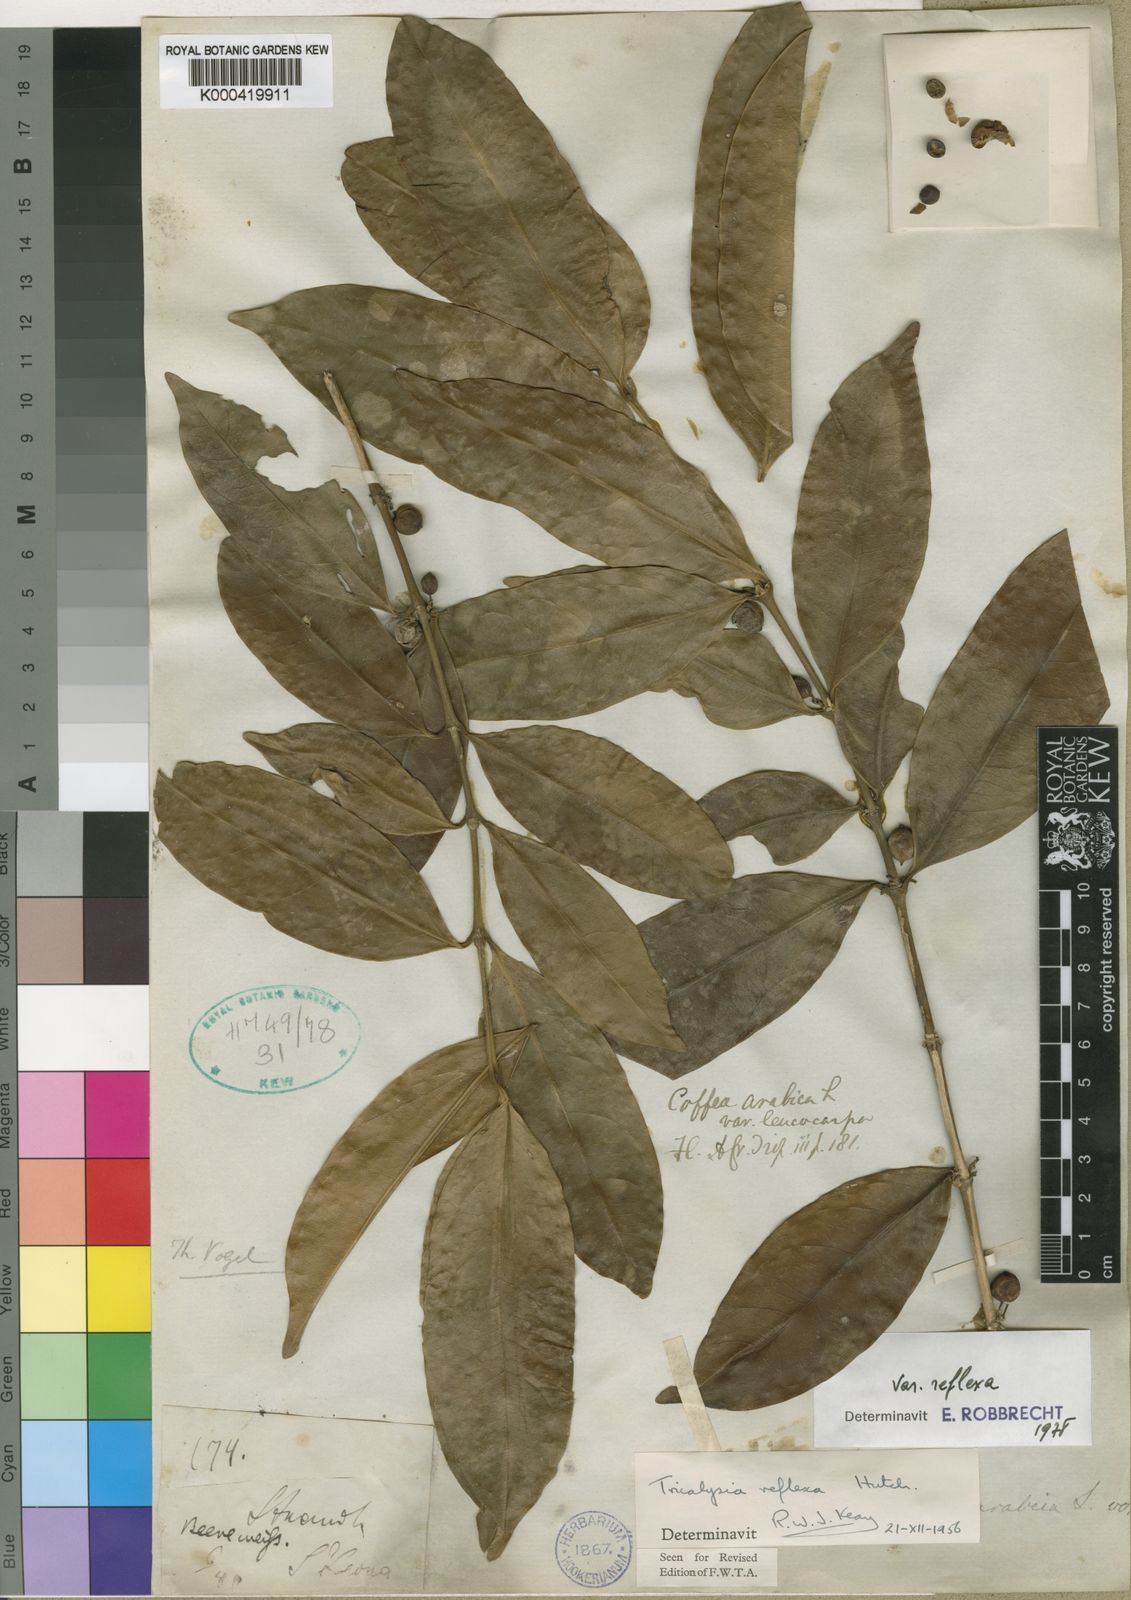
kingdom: Plantae
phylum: Tracheophyta
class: Magnoliopsida
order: Gentianales
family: Rubiaceae
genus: Empogona
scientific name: Empogona reflexa
